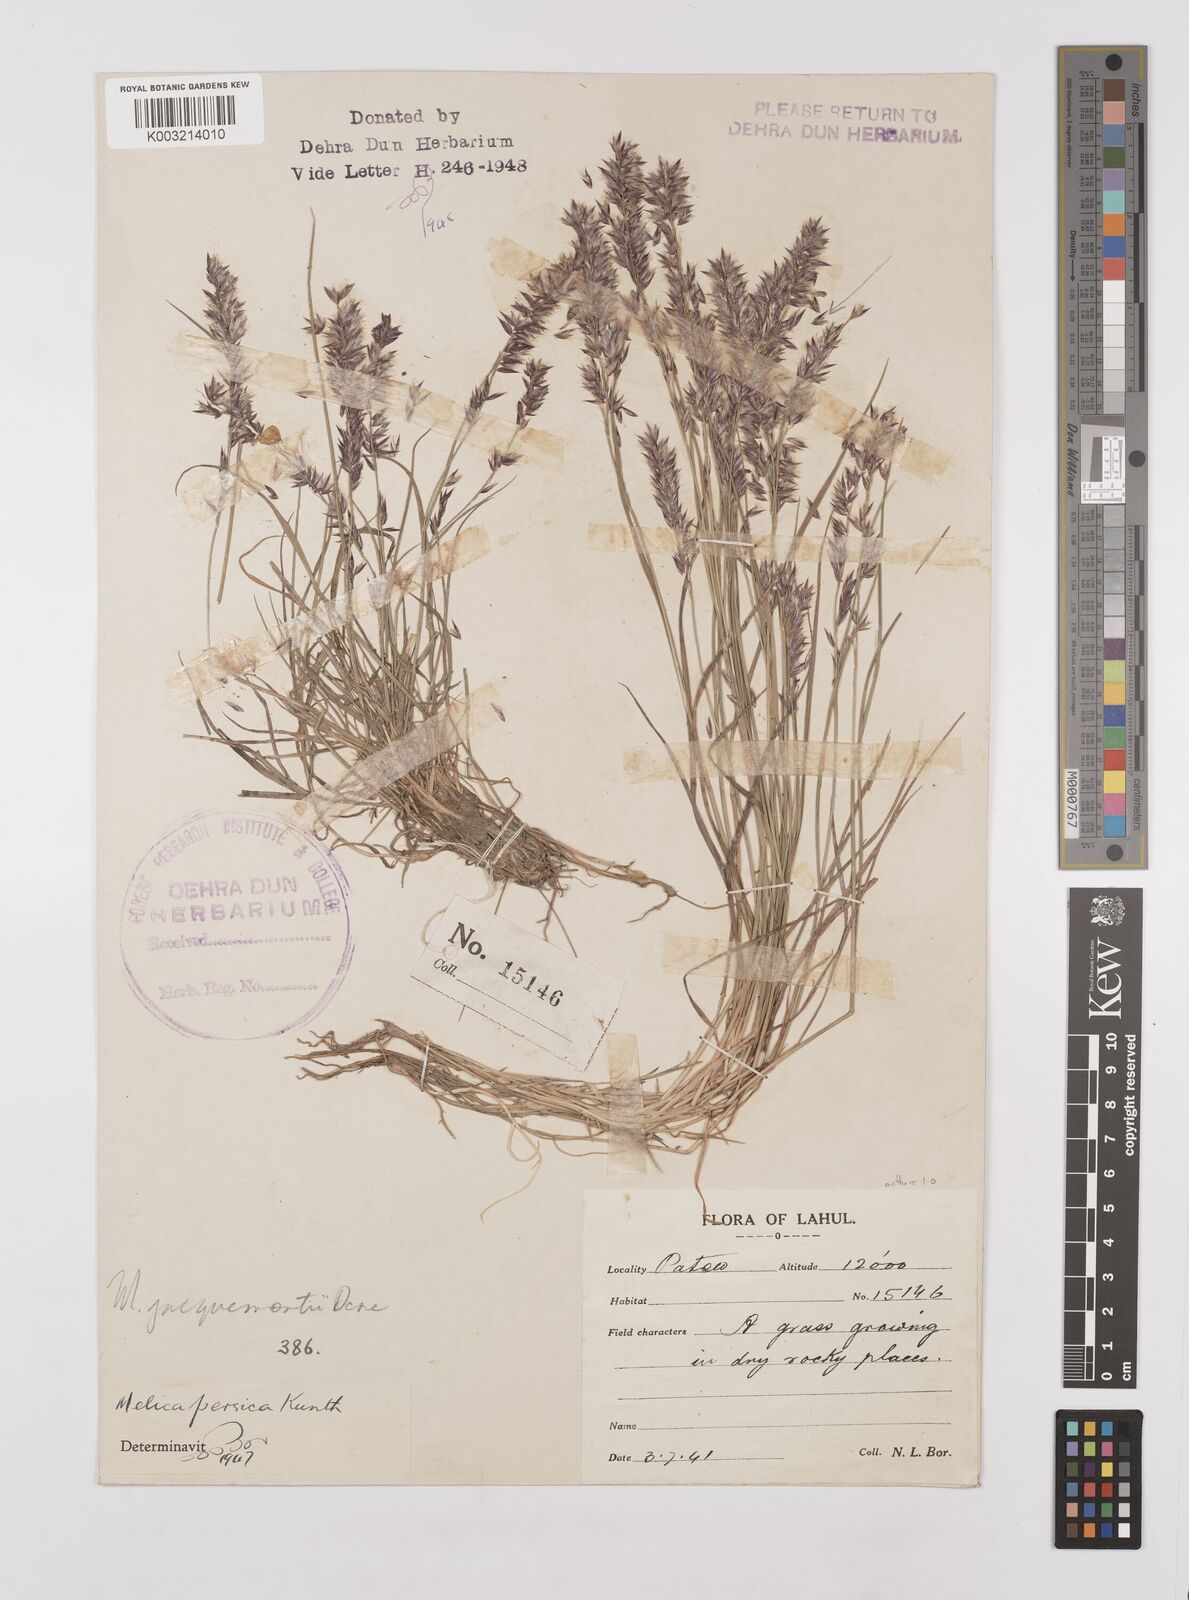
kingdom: Plantae
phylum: Tracheophyta
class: Liliopsida
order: Poales
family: Poaceae
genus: Melica
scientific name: Melica persica
